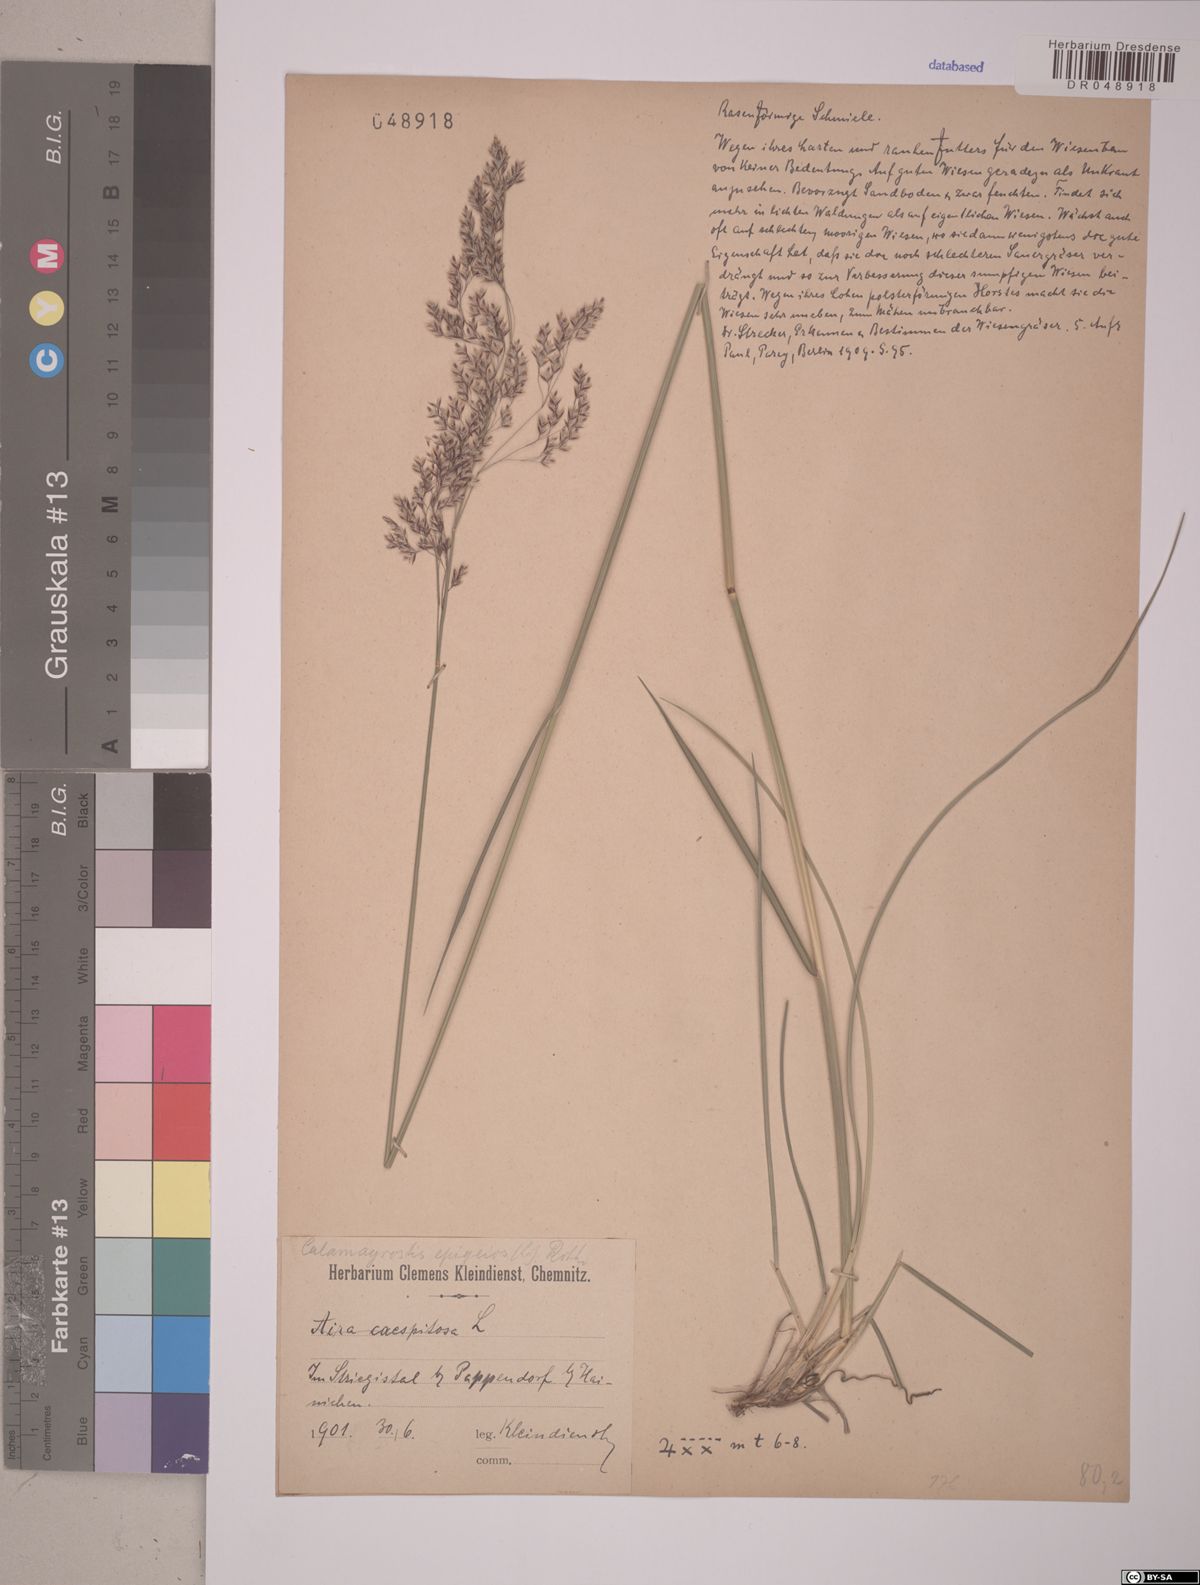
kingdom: Plantae
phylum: Tracheophyta
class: Liliopsida
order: Poales
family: Poaceae
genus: Calamagrostis
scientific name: Calamagrostis epigejos
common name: Wood small-reed
